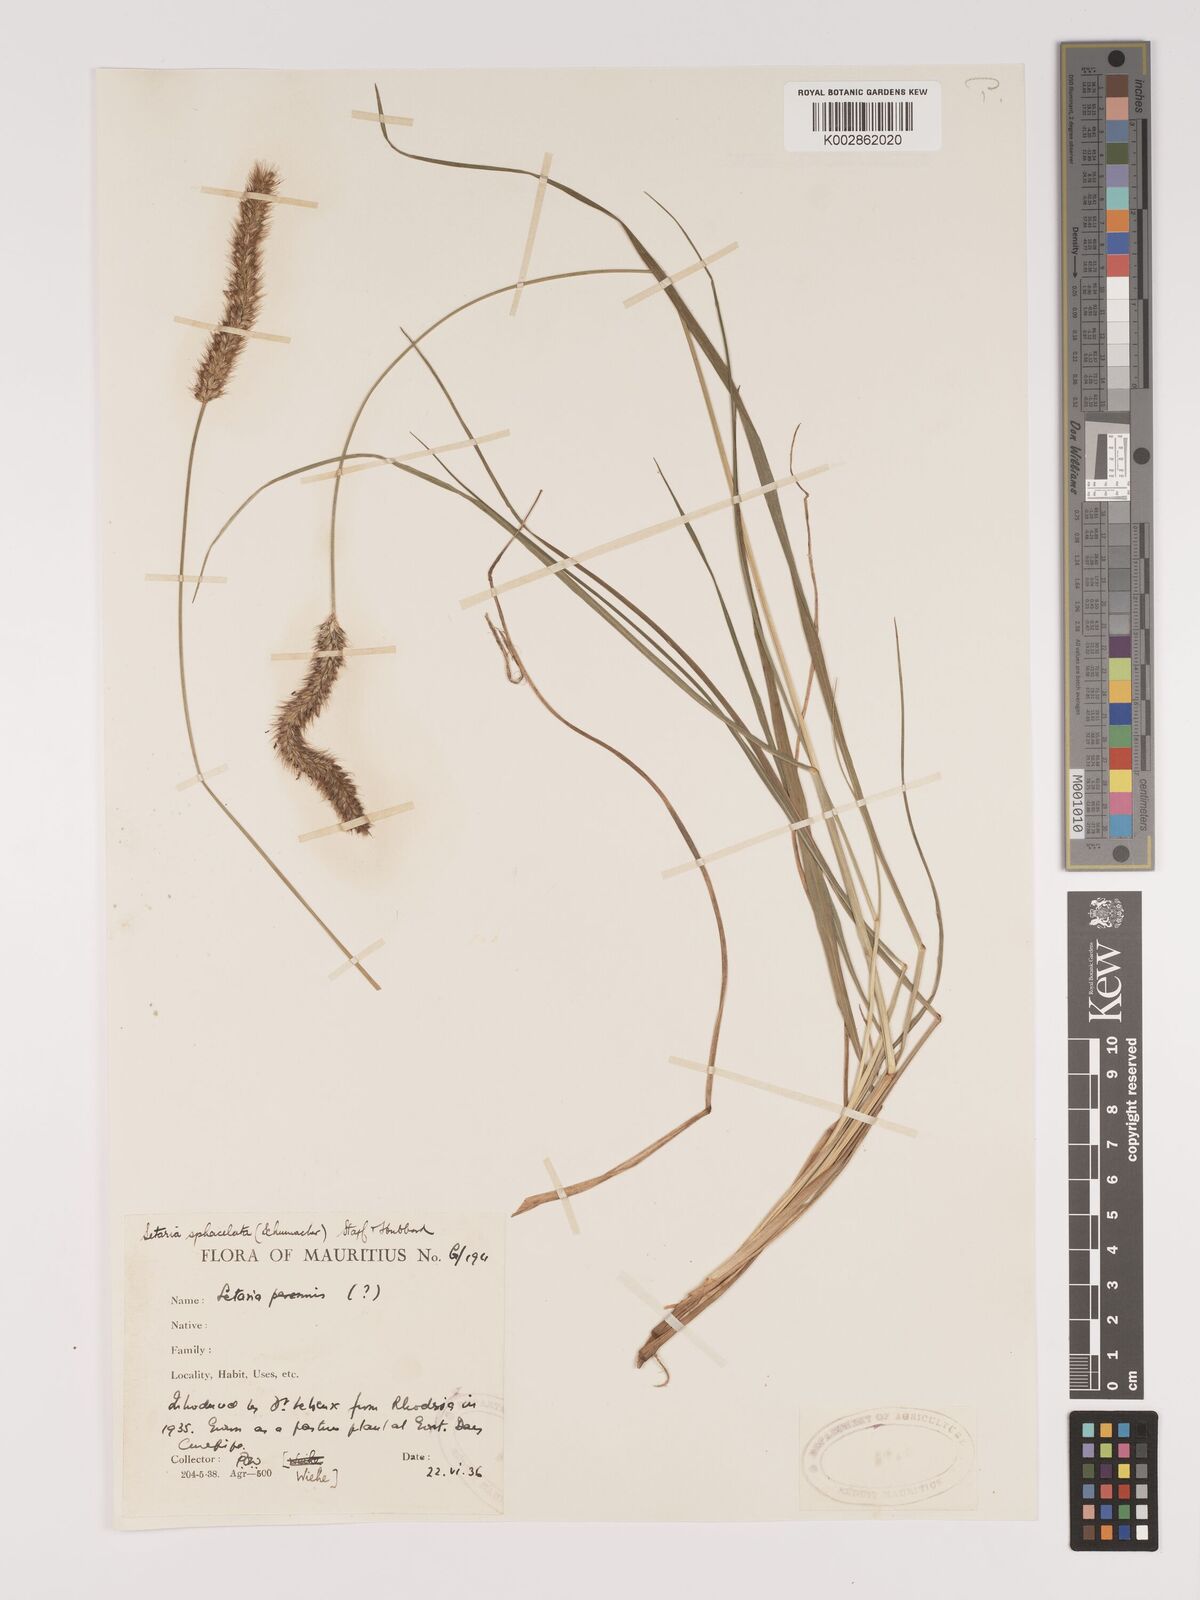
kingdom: Plantae
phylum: Tracheophyta
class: Liliopsida
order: Poales
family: Poaceae
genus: Setaria
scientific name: Setaria sphacelata
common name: African bristlegrass
